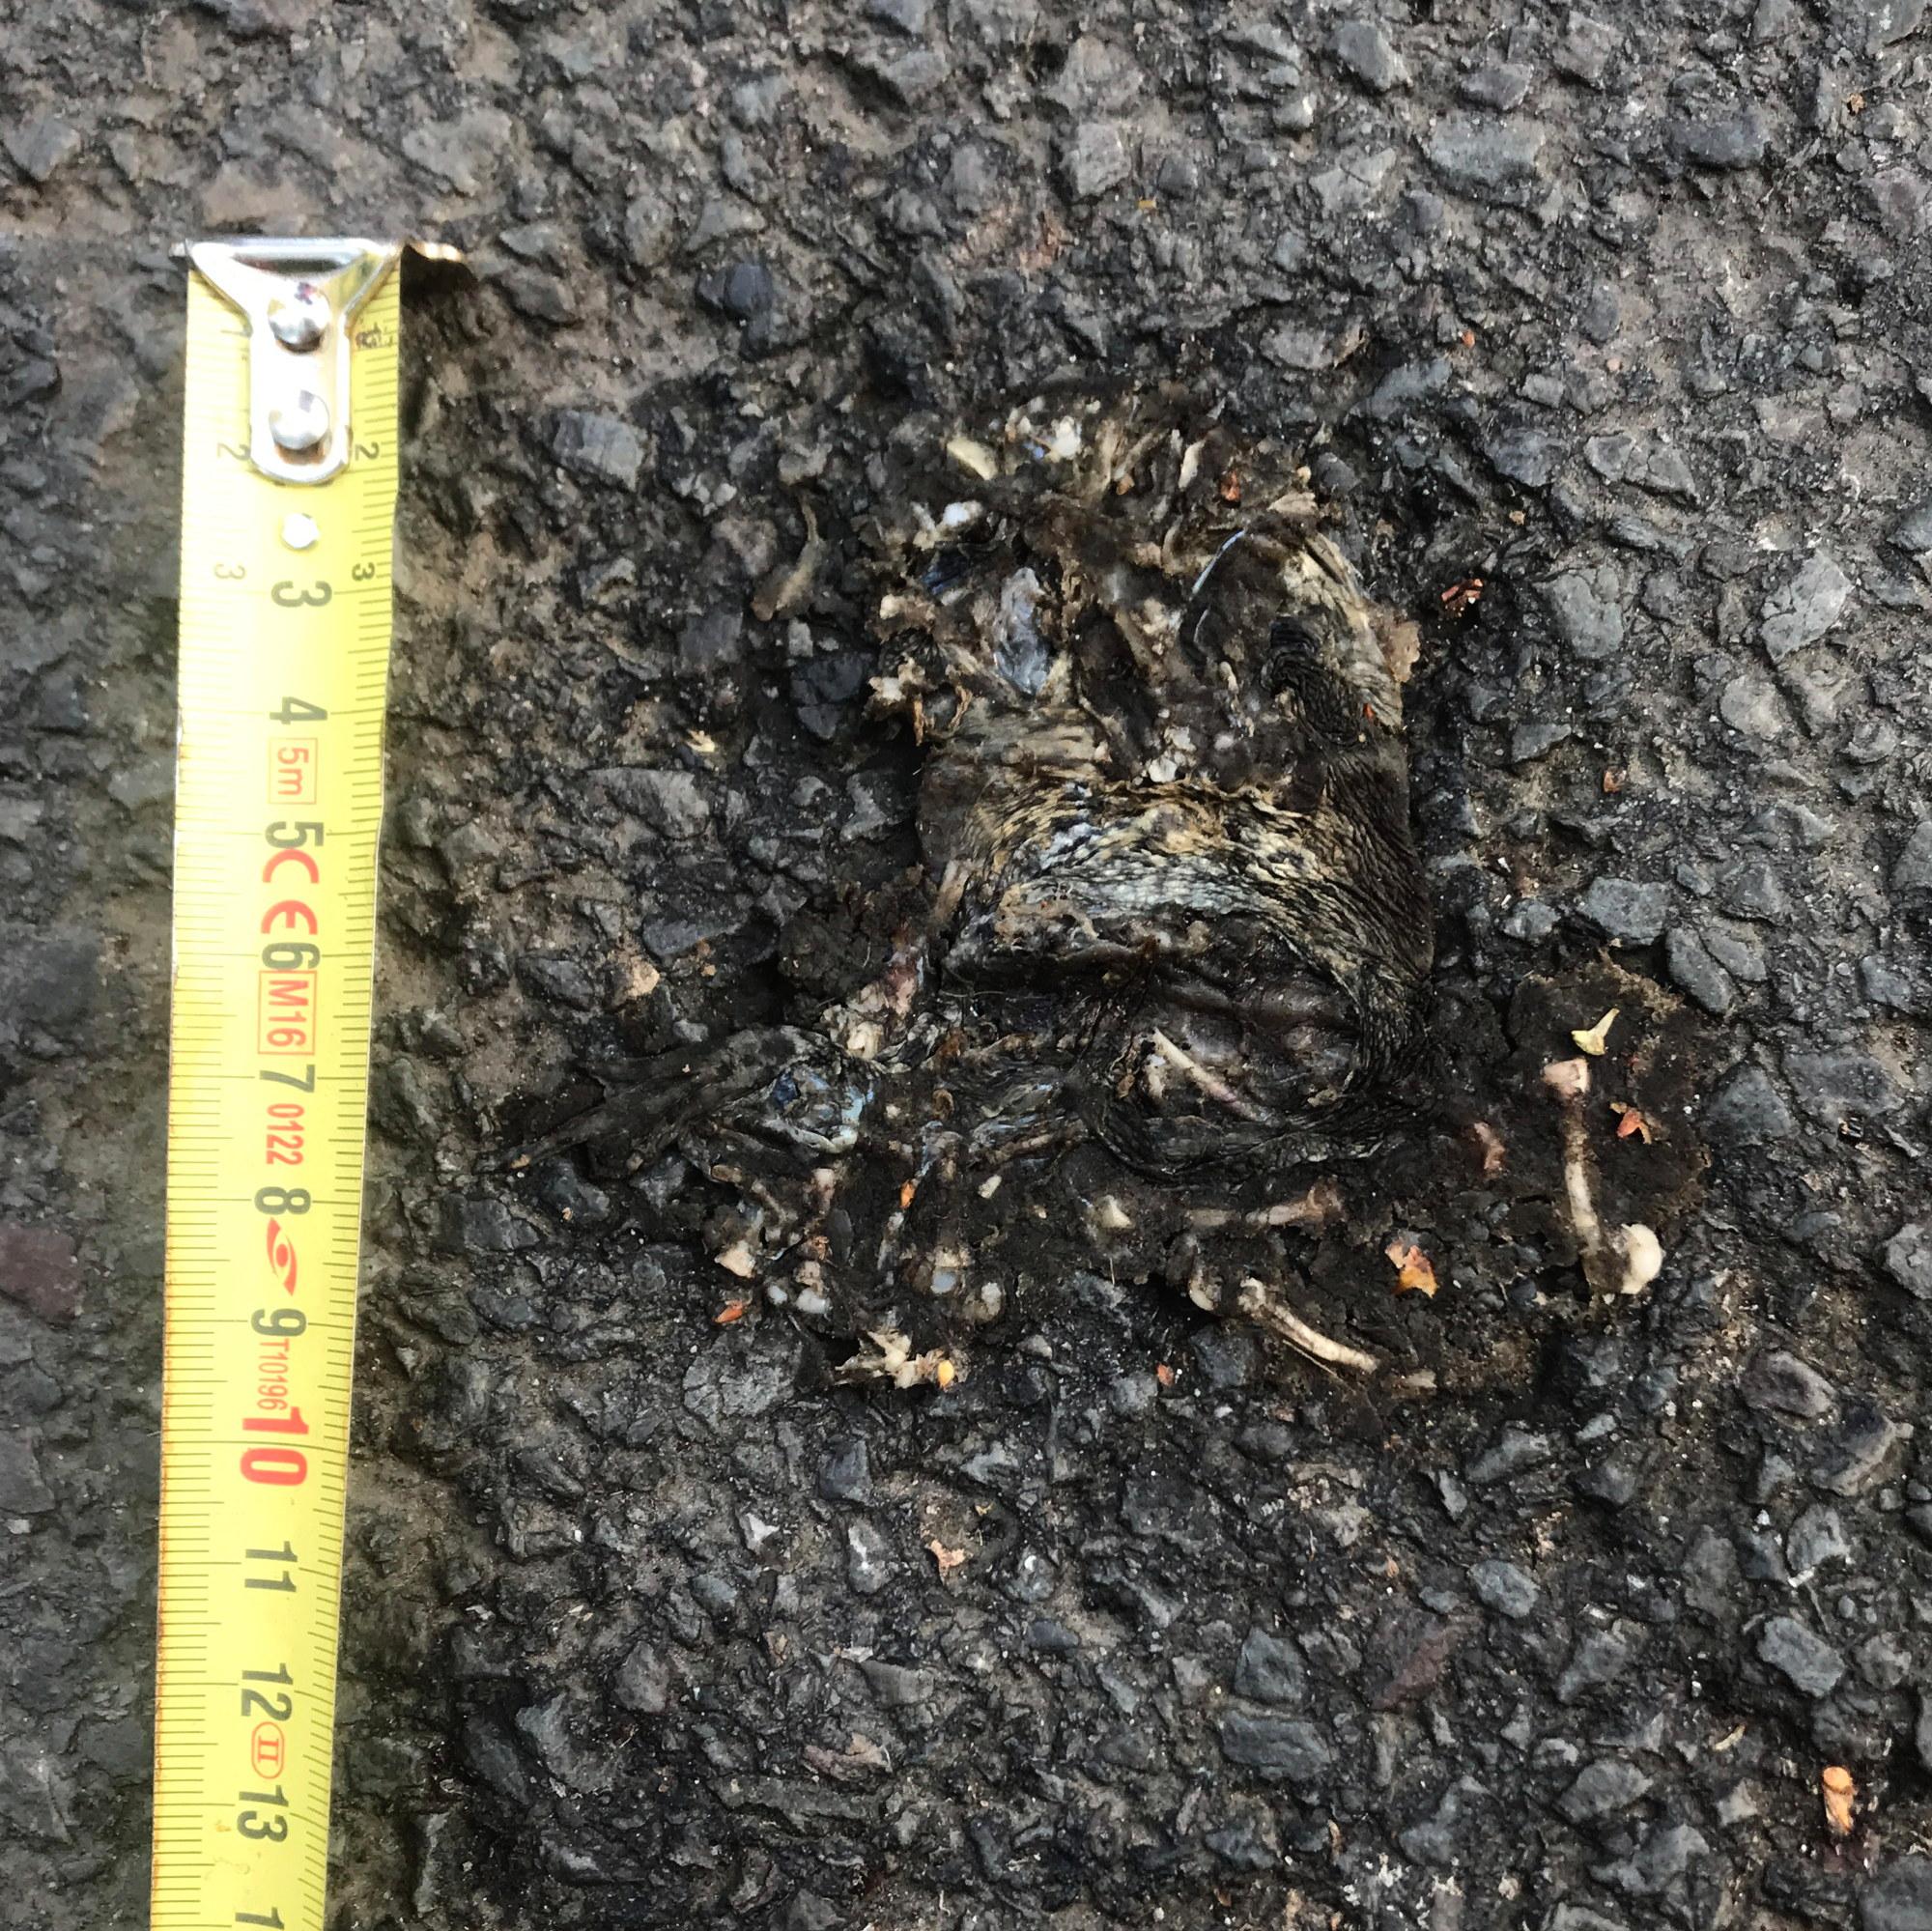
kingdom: Animalia
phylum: Chordata
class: Amphibia
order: Anura
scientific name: Anura
